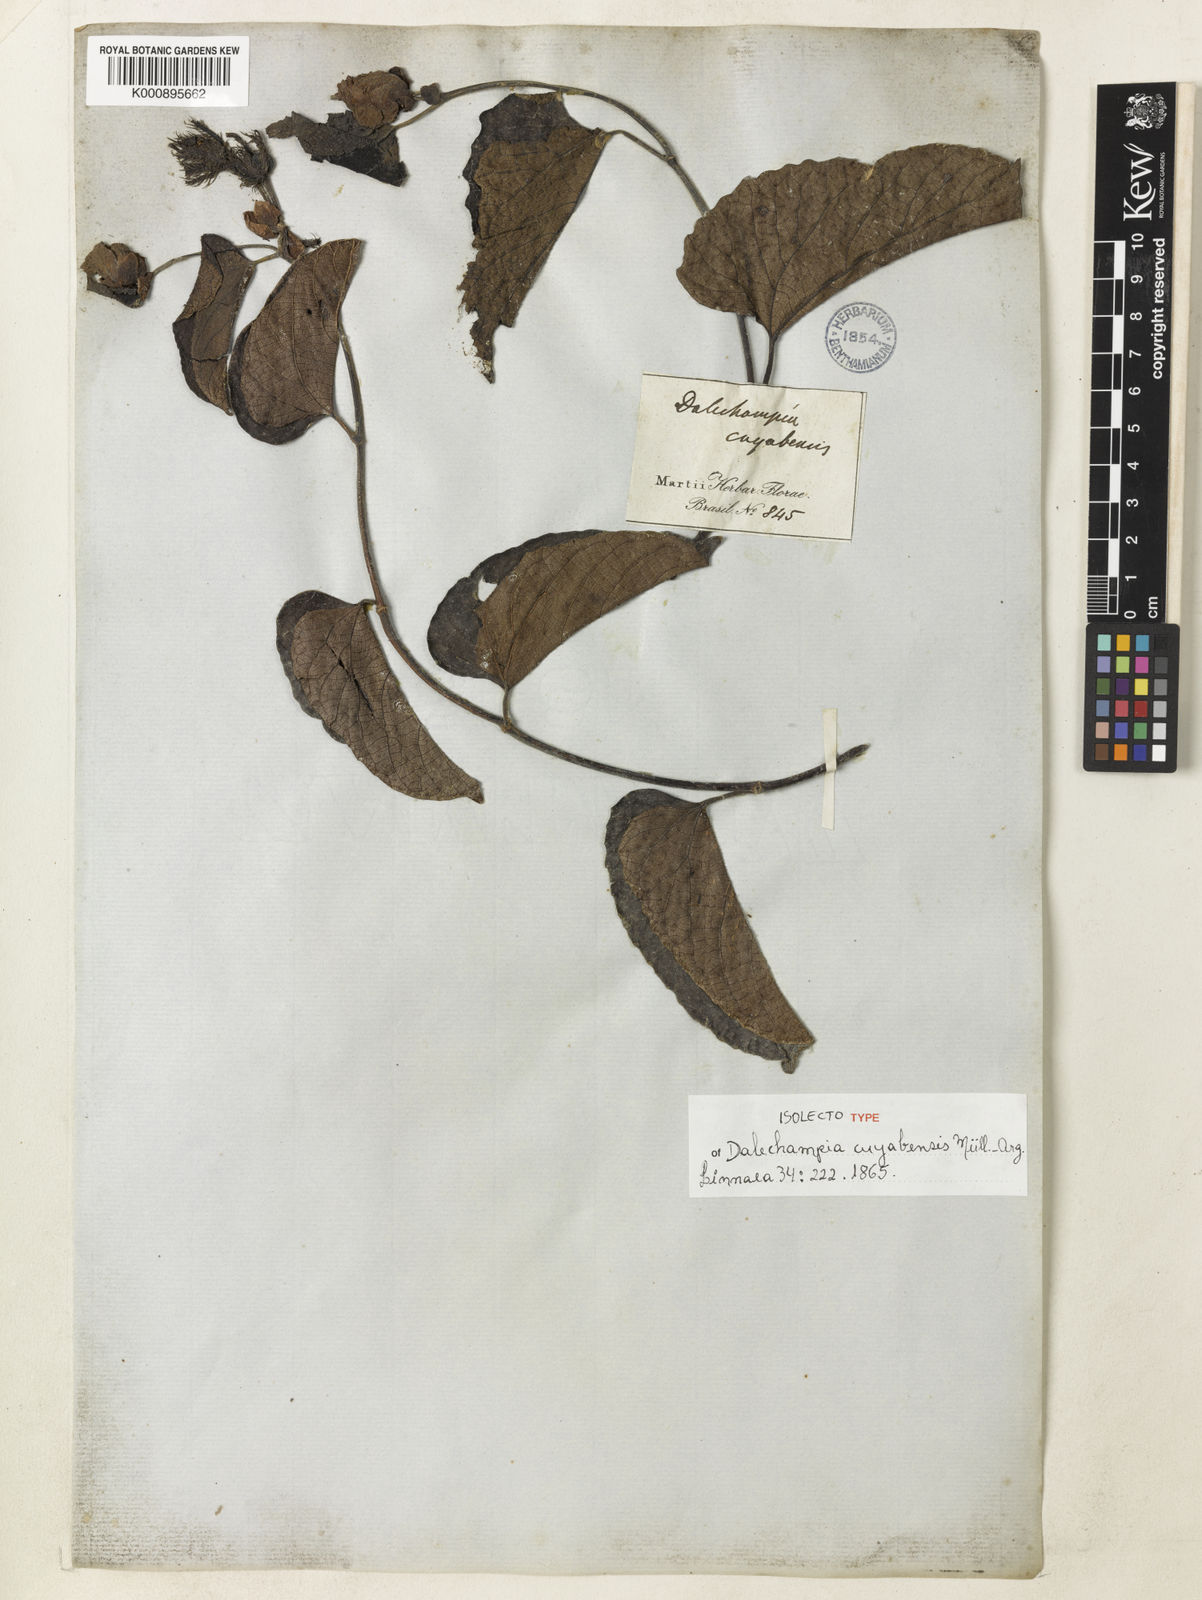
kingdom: Plantae
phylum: Tracheophyta
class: Magnoliopsida
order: Malpighiales
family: Euphorbiaceae
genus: Dalechampia
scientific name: Dalechampia
